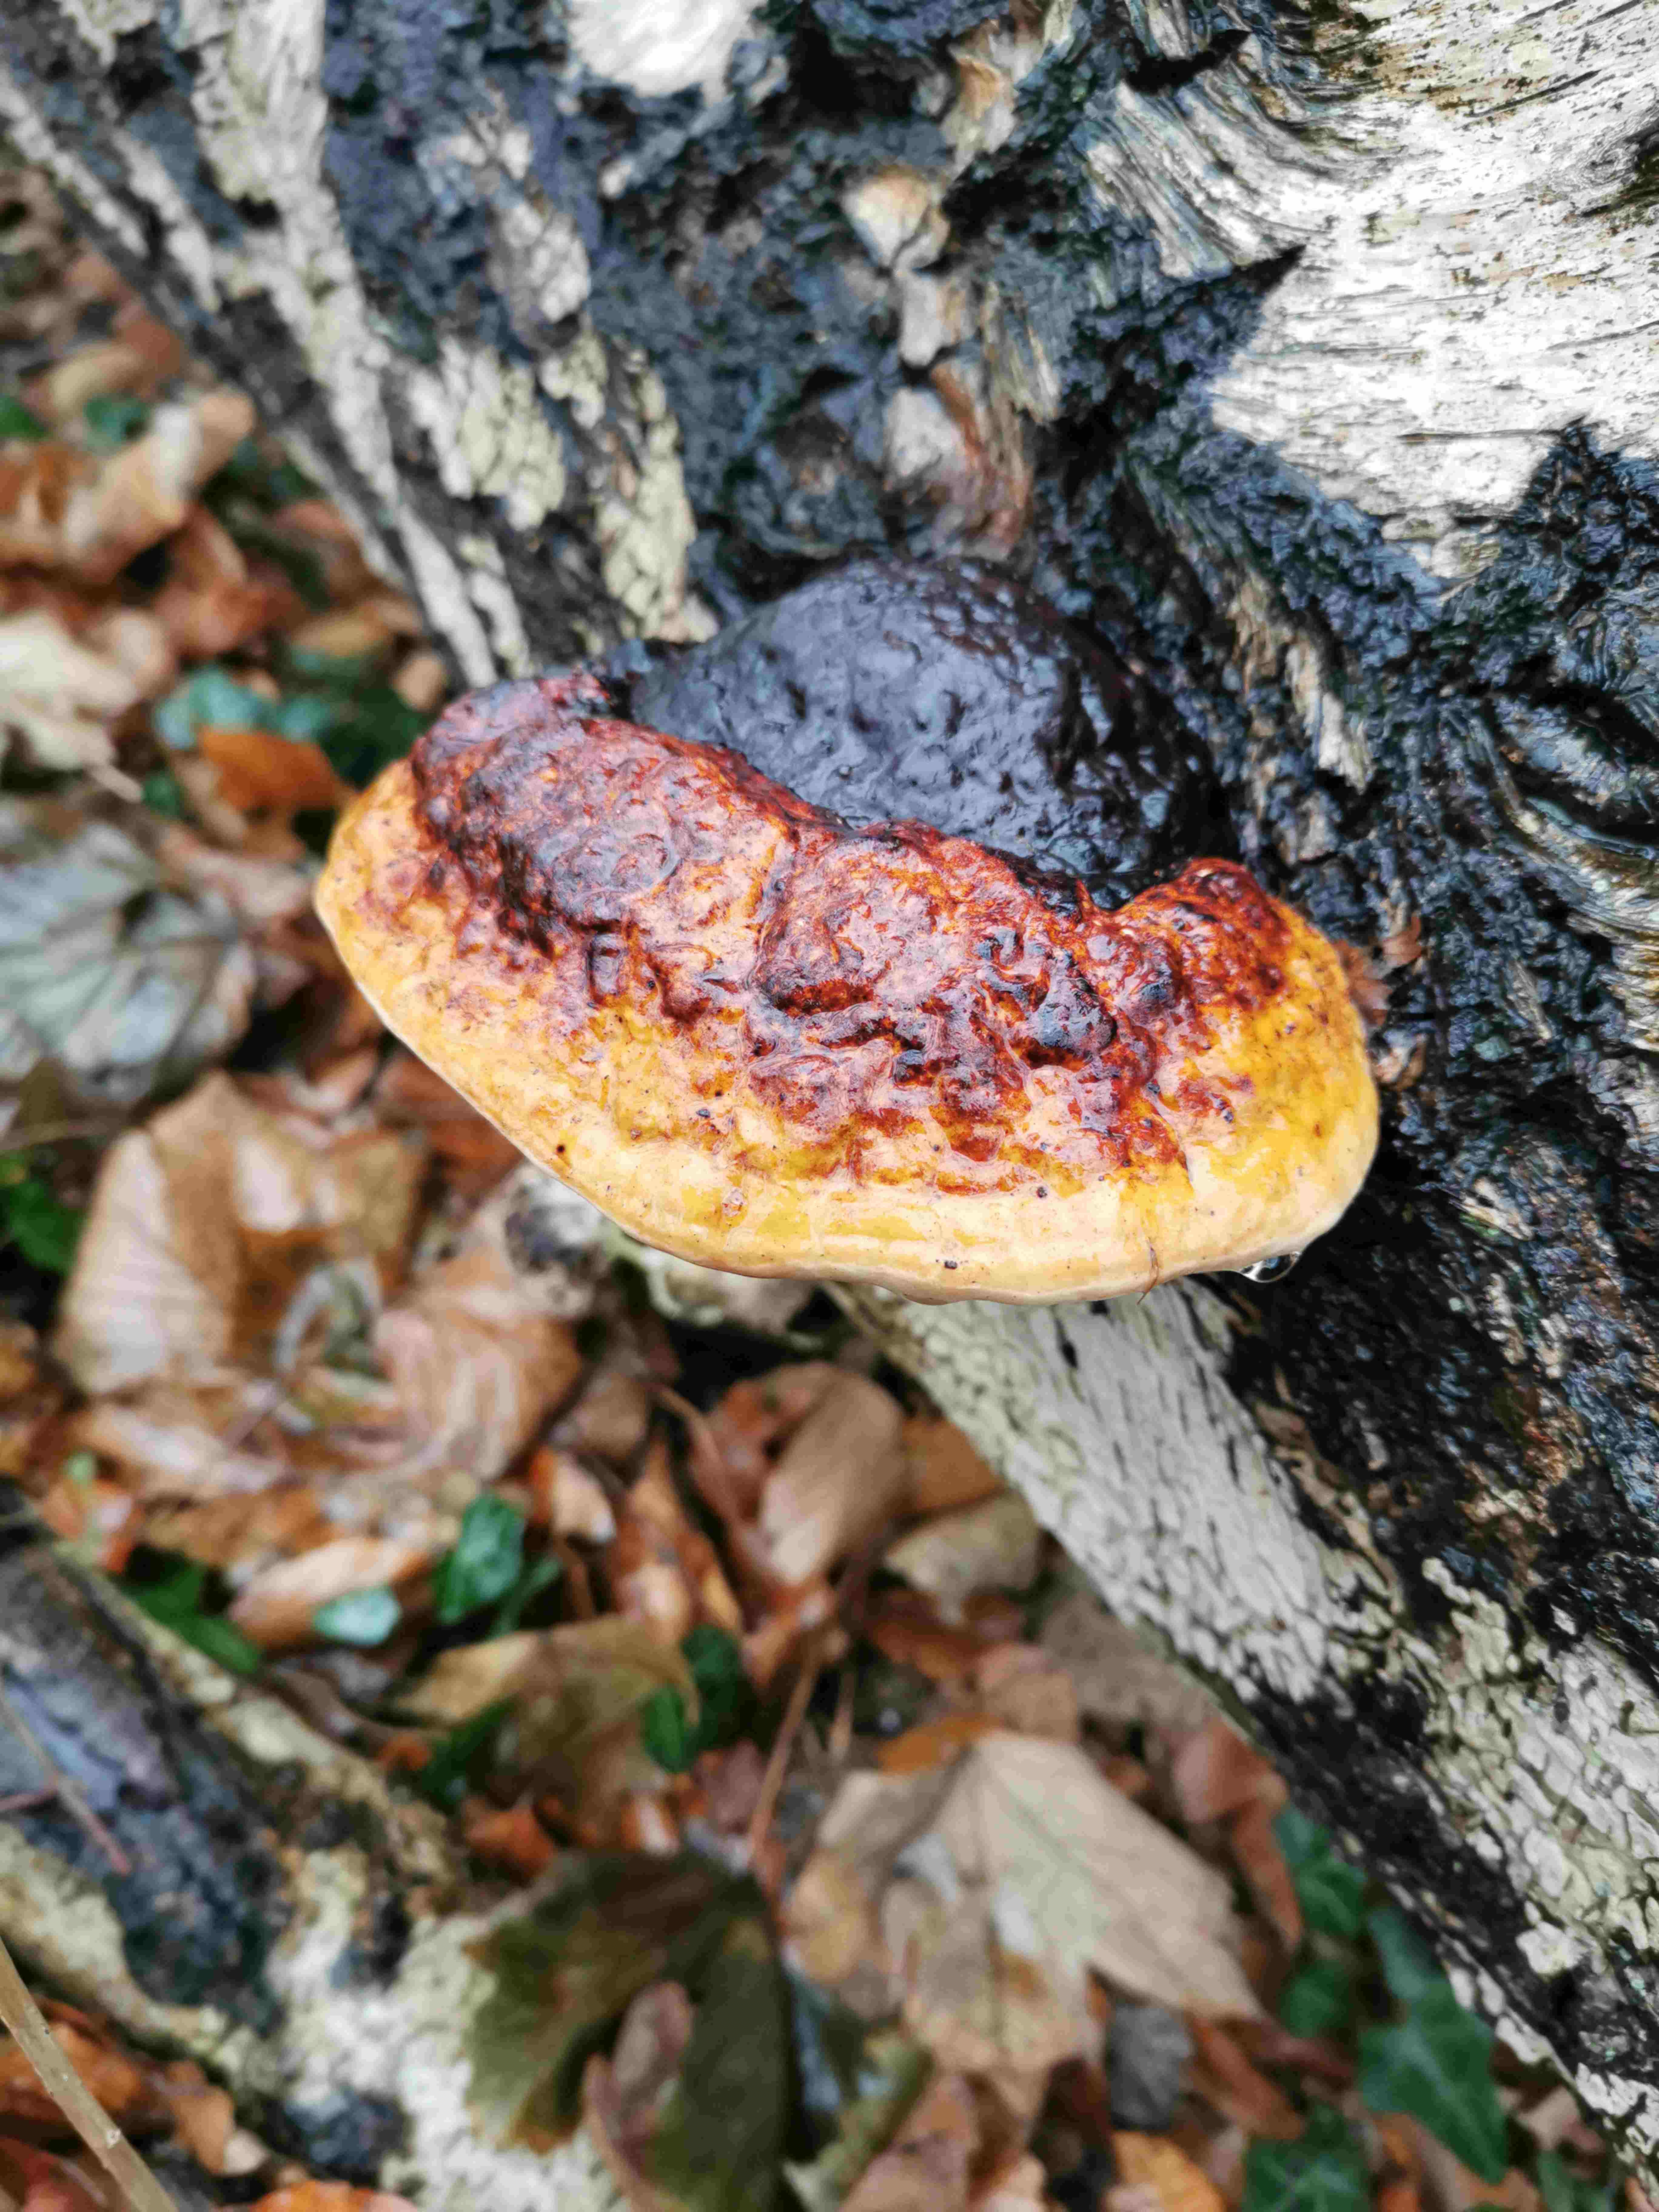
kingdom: Fungi
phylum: Basidiomycota
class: Agaricomycetes
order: Polyporales
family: Fomitopsidaceae
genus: Fomitopsis
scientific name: Fomitopsis pinicola
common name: randbæltet hovporesvamp
